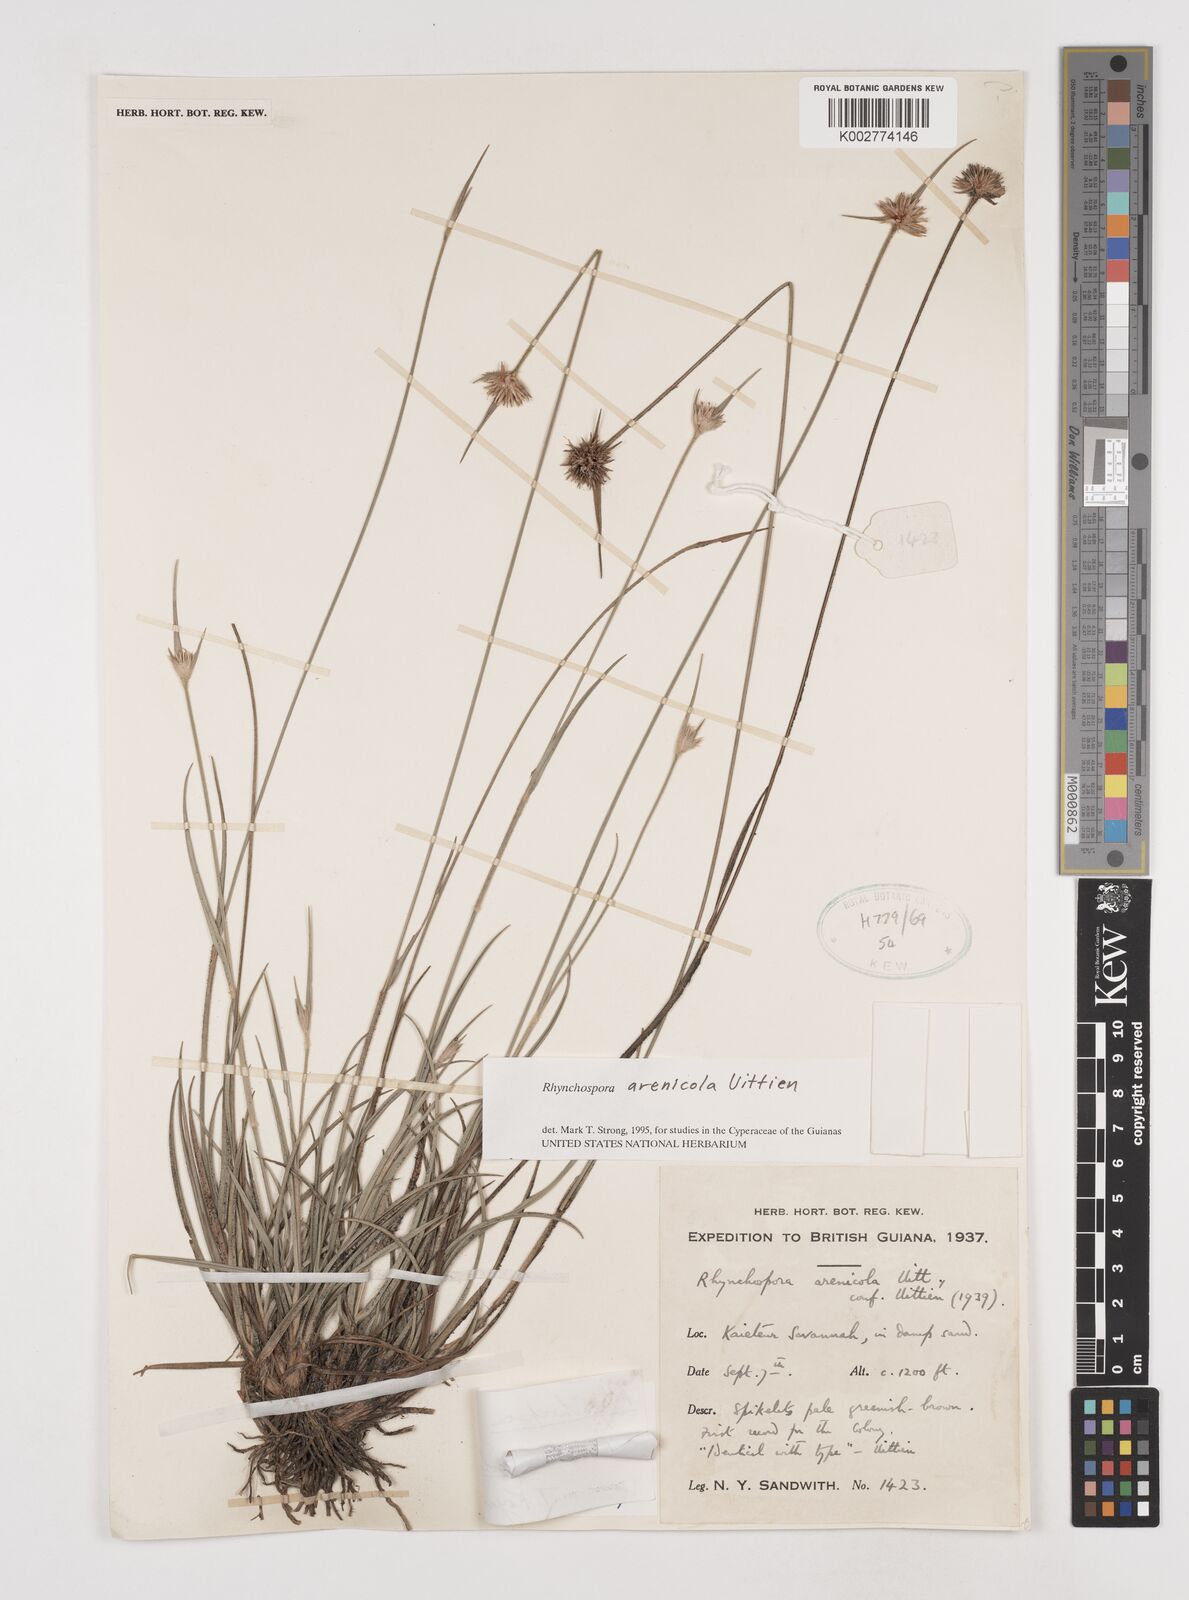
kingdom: Plantae
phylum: Tracheophyta
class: Liliopsida
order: Poales
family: Cyperaceae
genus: Rhynchospora
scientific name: Rhynchospora arenicola
